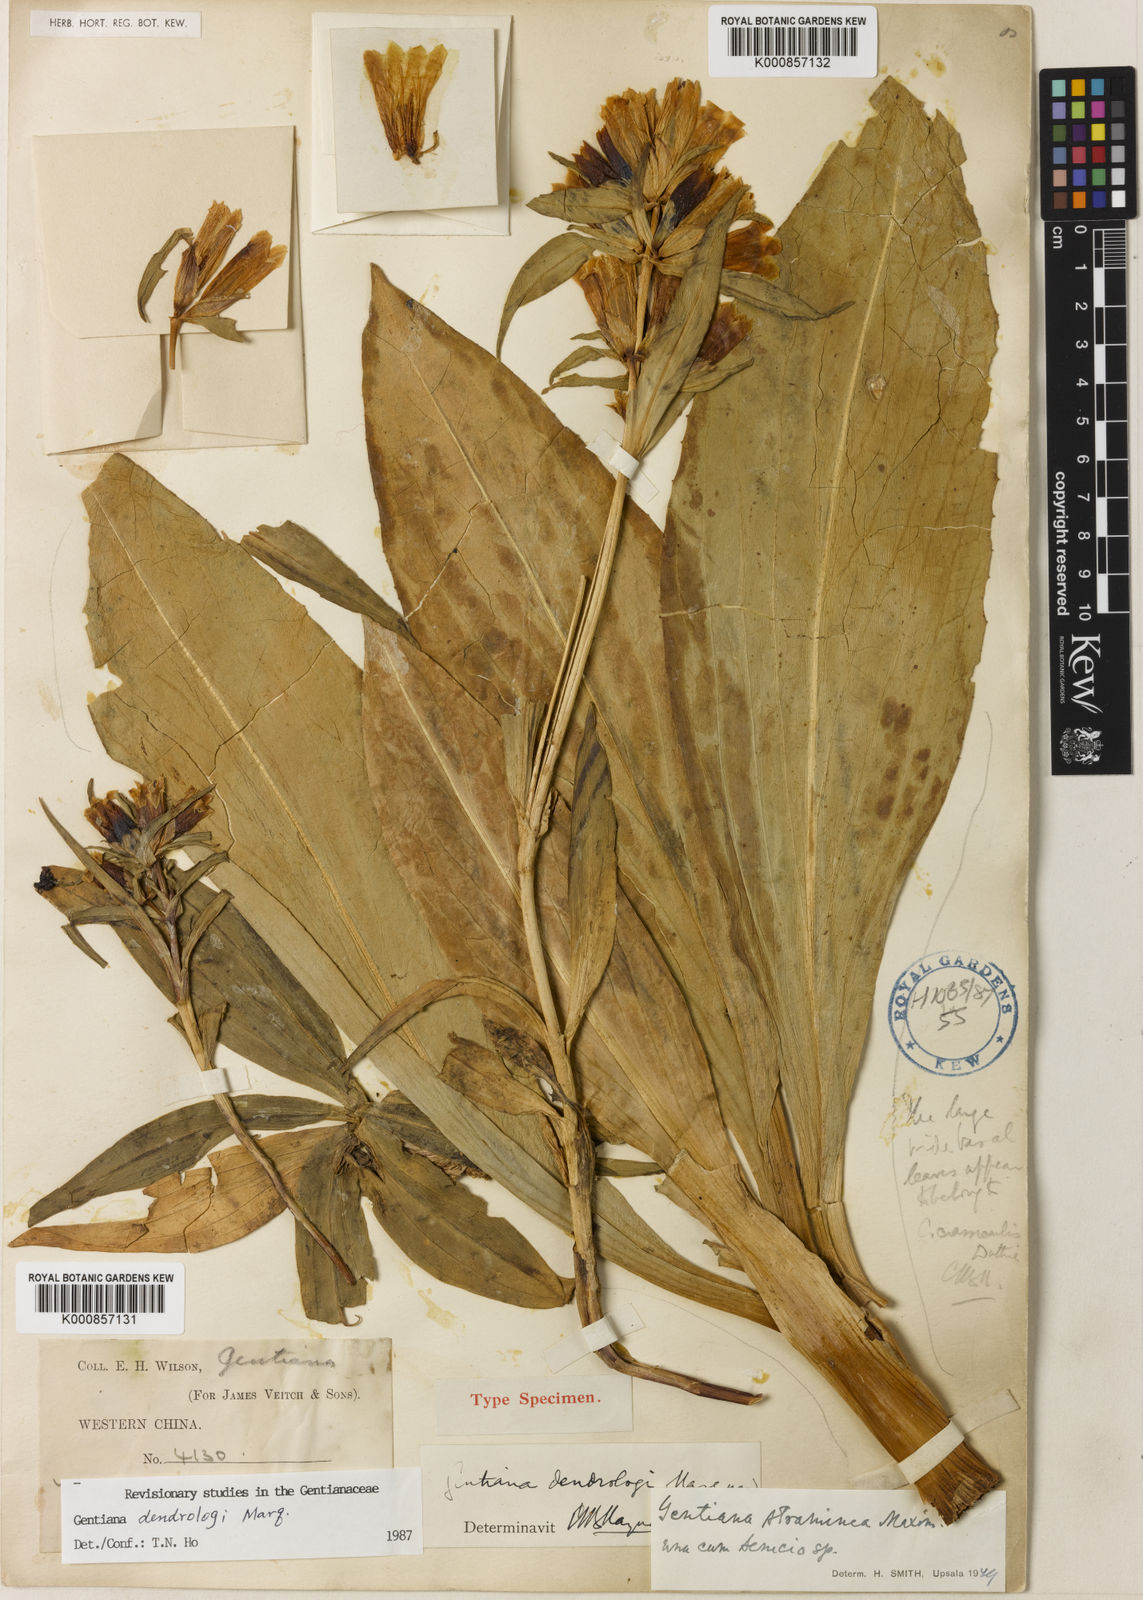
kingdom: Plantae
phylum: Tracheophyta
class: Magnoliopsida
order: Gentianales
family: Gentianaceae
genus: Gentiana
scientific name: Gentiana dendrologi
